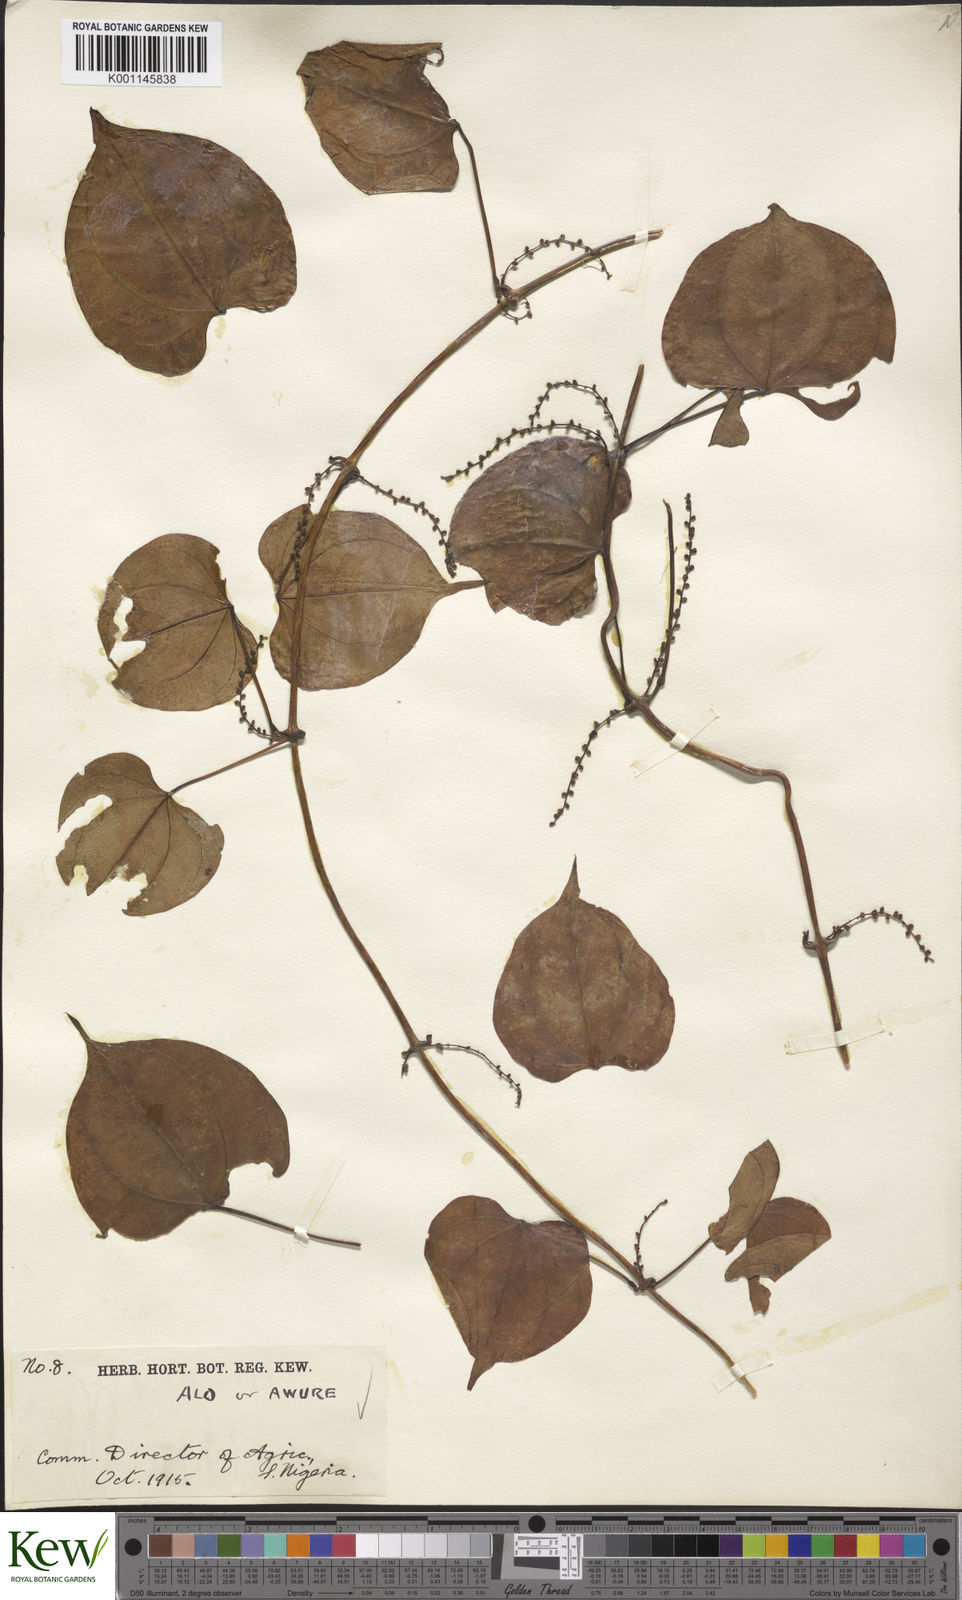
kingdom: Plantae
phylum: Tracheophyta
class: Liliopsida
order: Dioscoreales
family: Dioscoreaceae
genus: Dioscorea
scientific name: Dioscorea cayenensis
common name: Attoto yam
